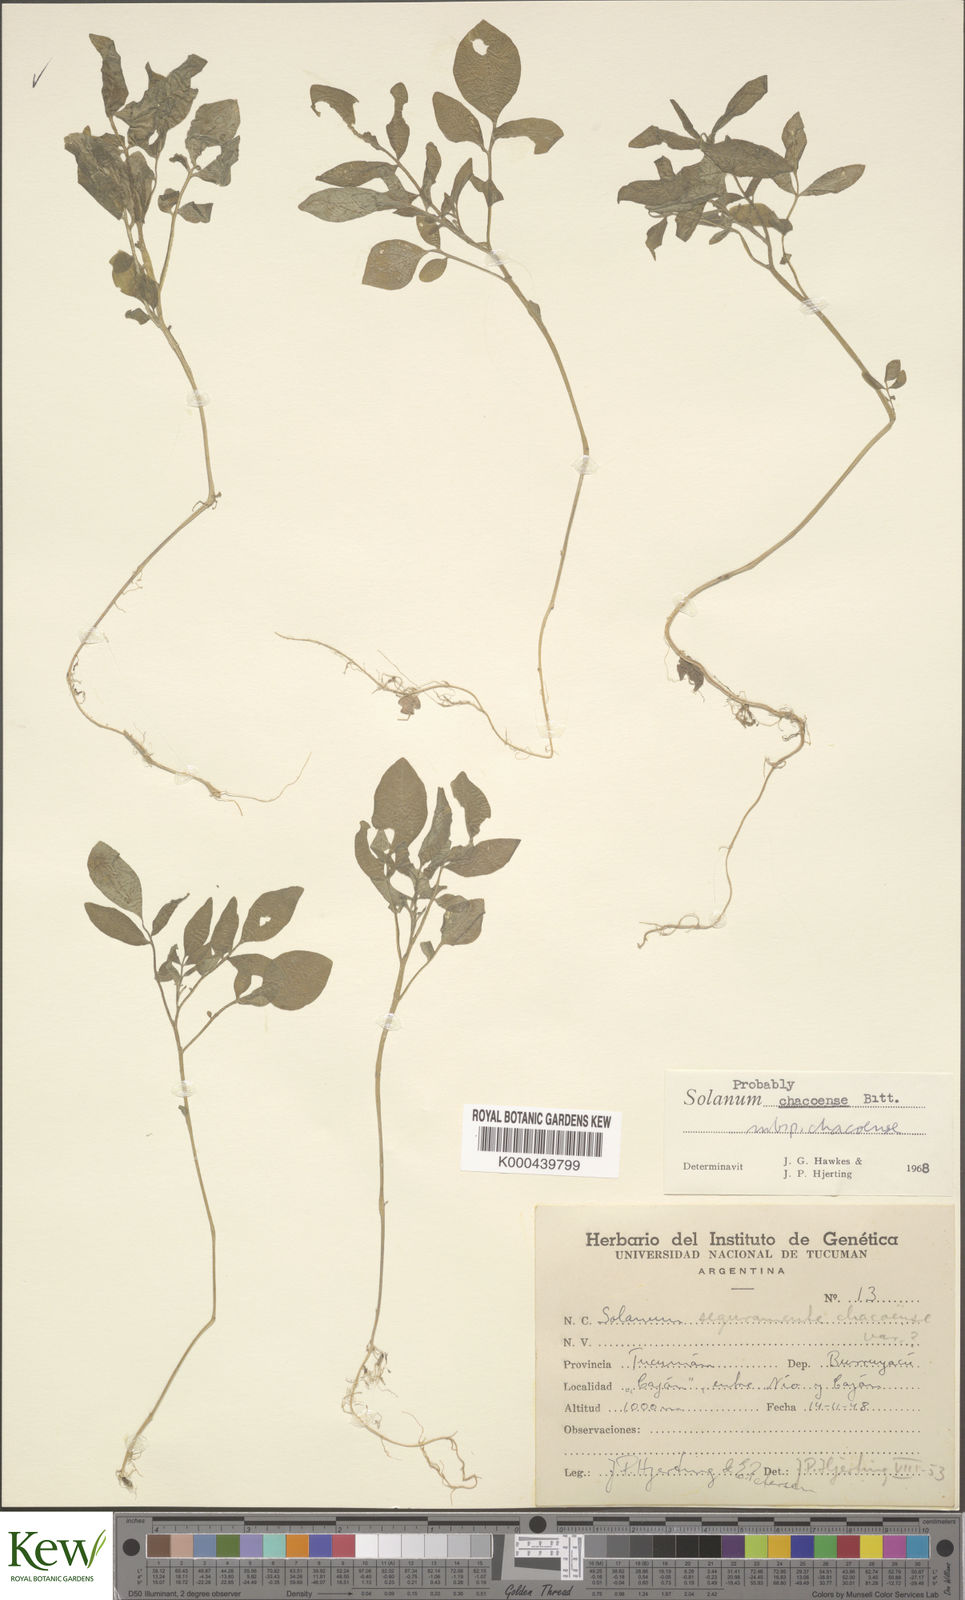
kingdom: Plantae
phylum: Tracheophyta
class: Magnoliopsida
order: Solanales
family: Solanaceae
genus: Solanum
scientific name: Solanum chacoense
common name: Chaco potato
